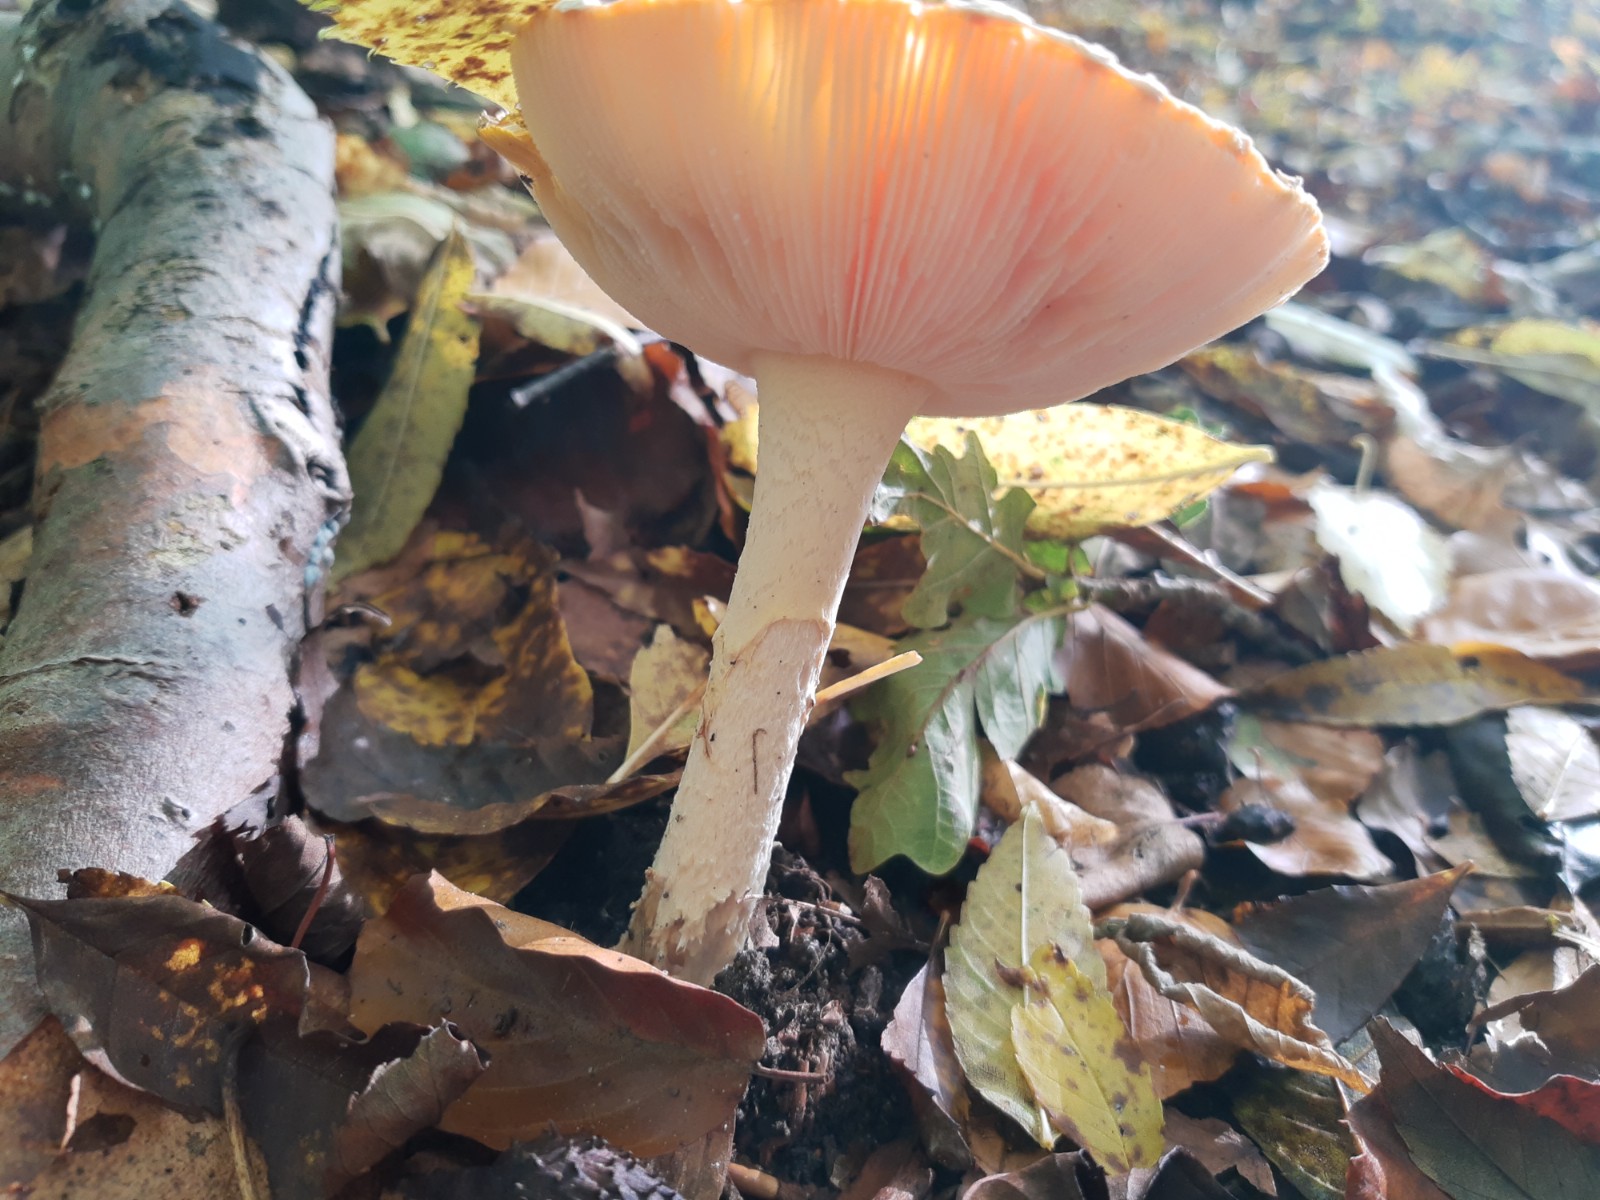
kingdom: Fungi
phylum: Basidiomycota
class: Agaricomycetes
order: Agaricales
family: Amanitaceae
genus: Amanita
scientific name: Amanita muscaria
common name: rød fluesvamp
